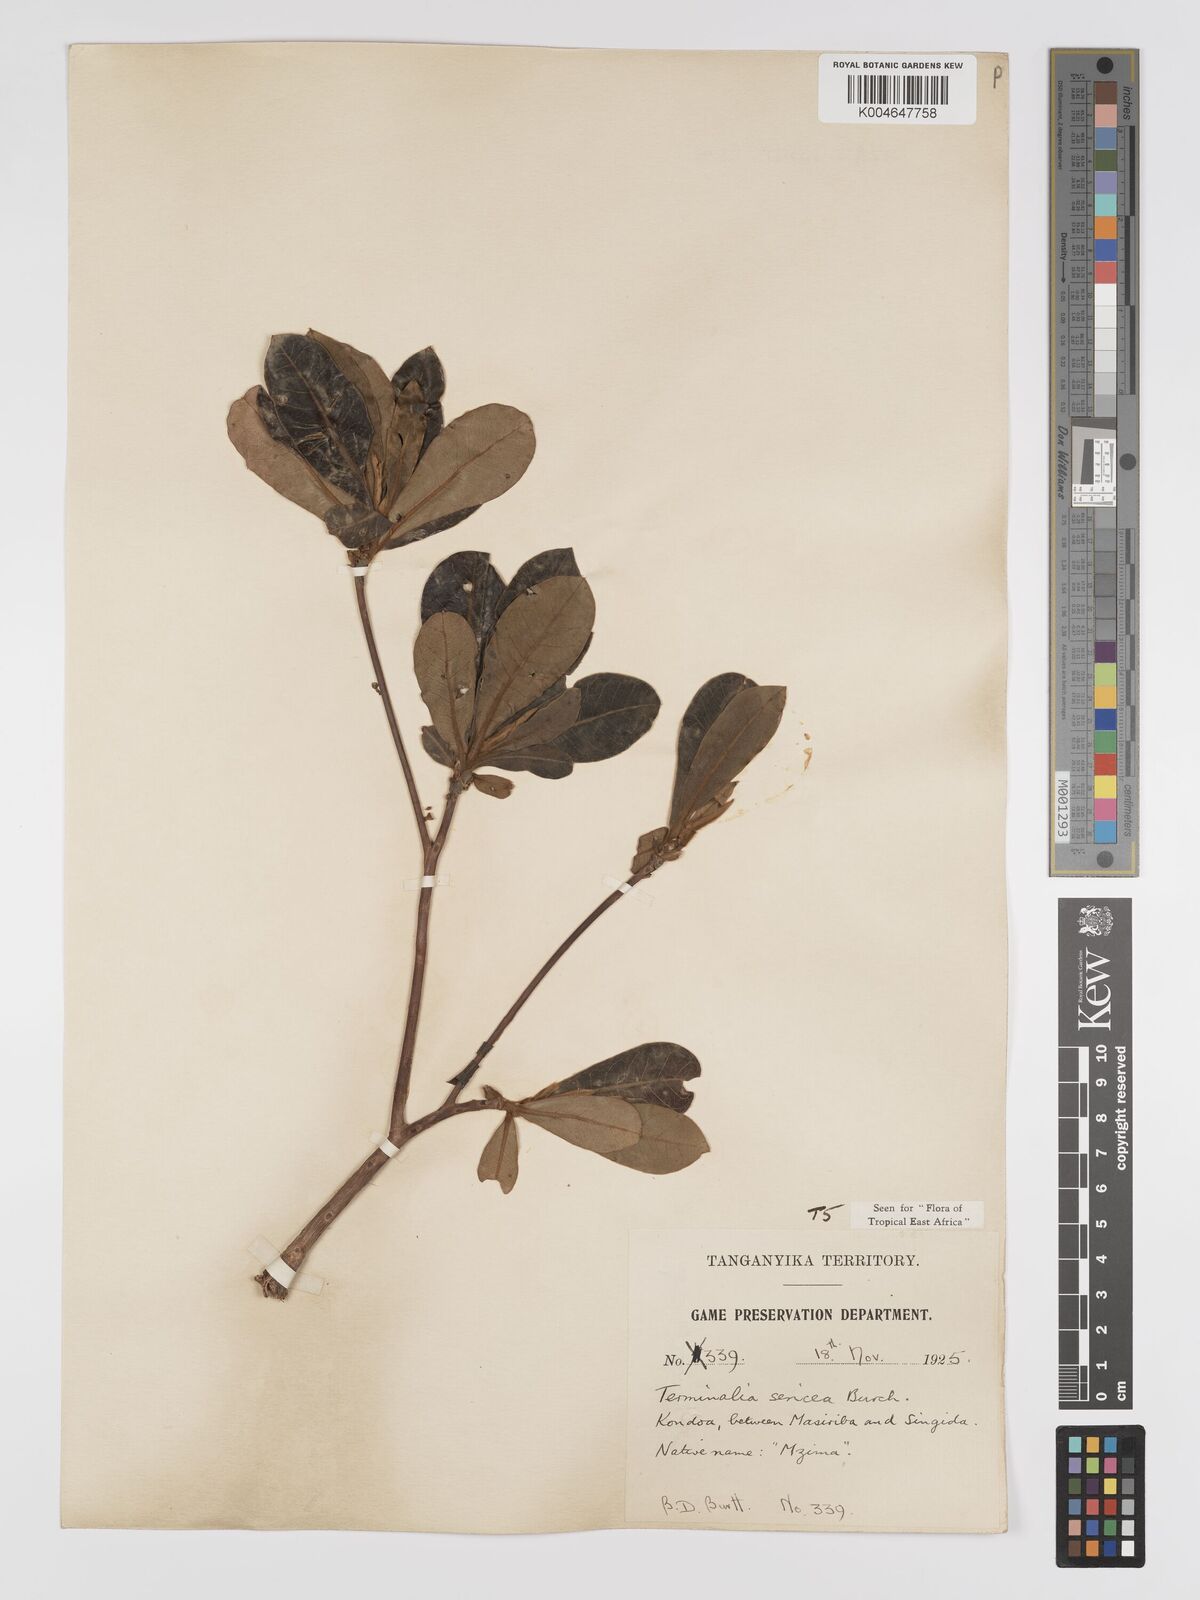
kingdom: Plantae
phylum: Tracheophyta
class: Magnoliopsida
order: Myrtales
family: Combretaceae
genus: Terminalia
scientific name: Terminalia
